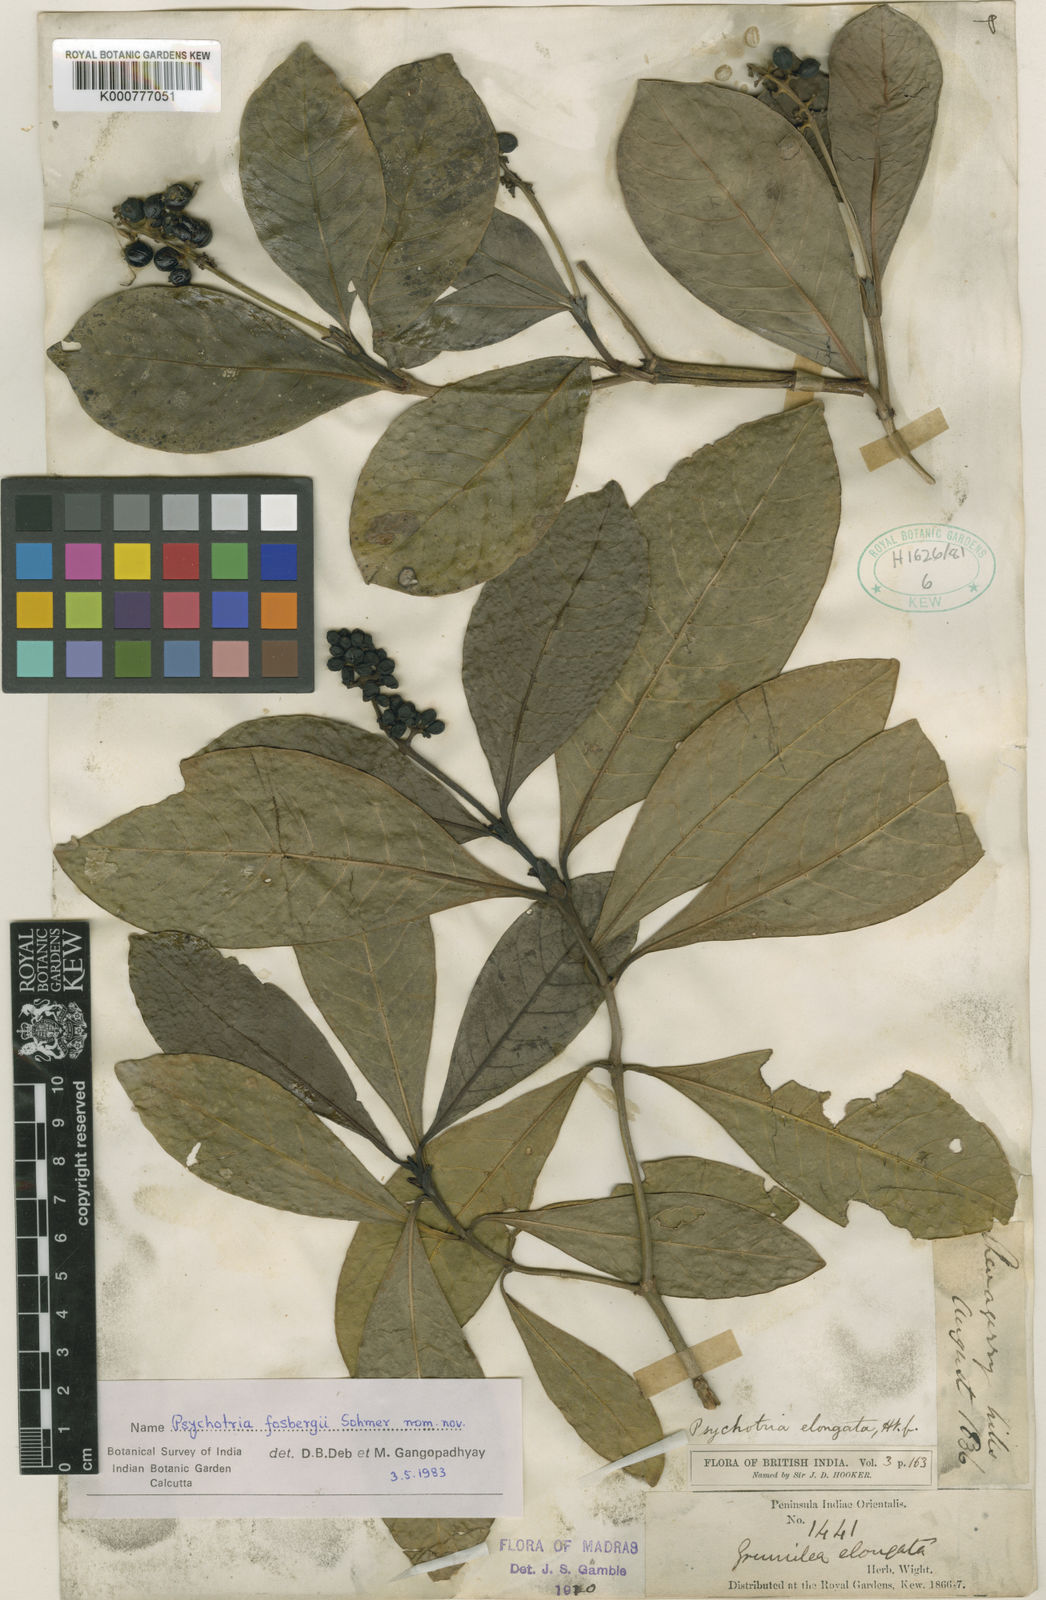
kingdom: Plantae
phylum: Tracheophyta
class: Magnoliopsida
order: Gentianales
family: Rubiaceae
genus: Psychotria
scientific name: Psychotria nilgherensis
